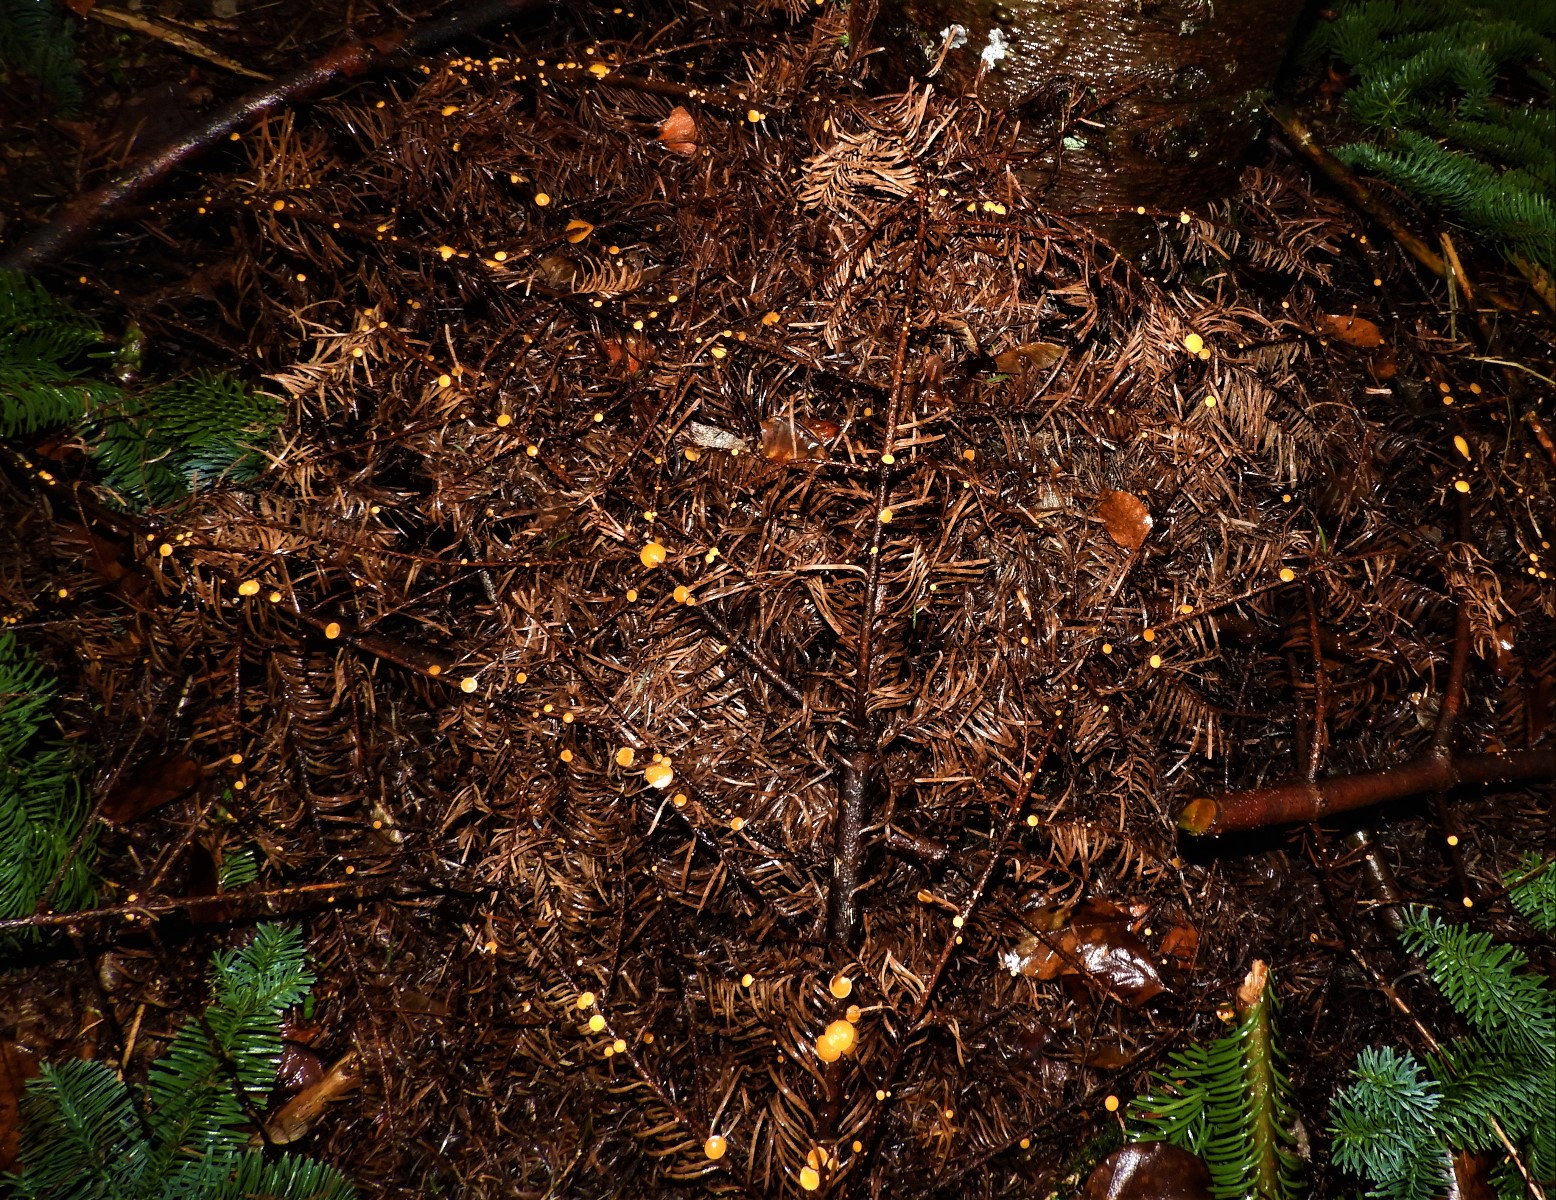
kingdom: Fungi
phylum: Ascomycota
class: Pezizomycetes
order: Pezizales
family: Sarcoscyphaceae
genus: Pithya
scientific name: Pithya vulgaris
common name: stor dukatbæger
